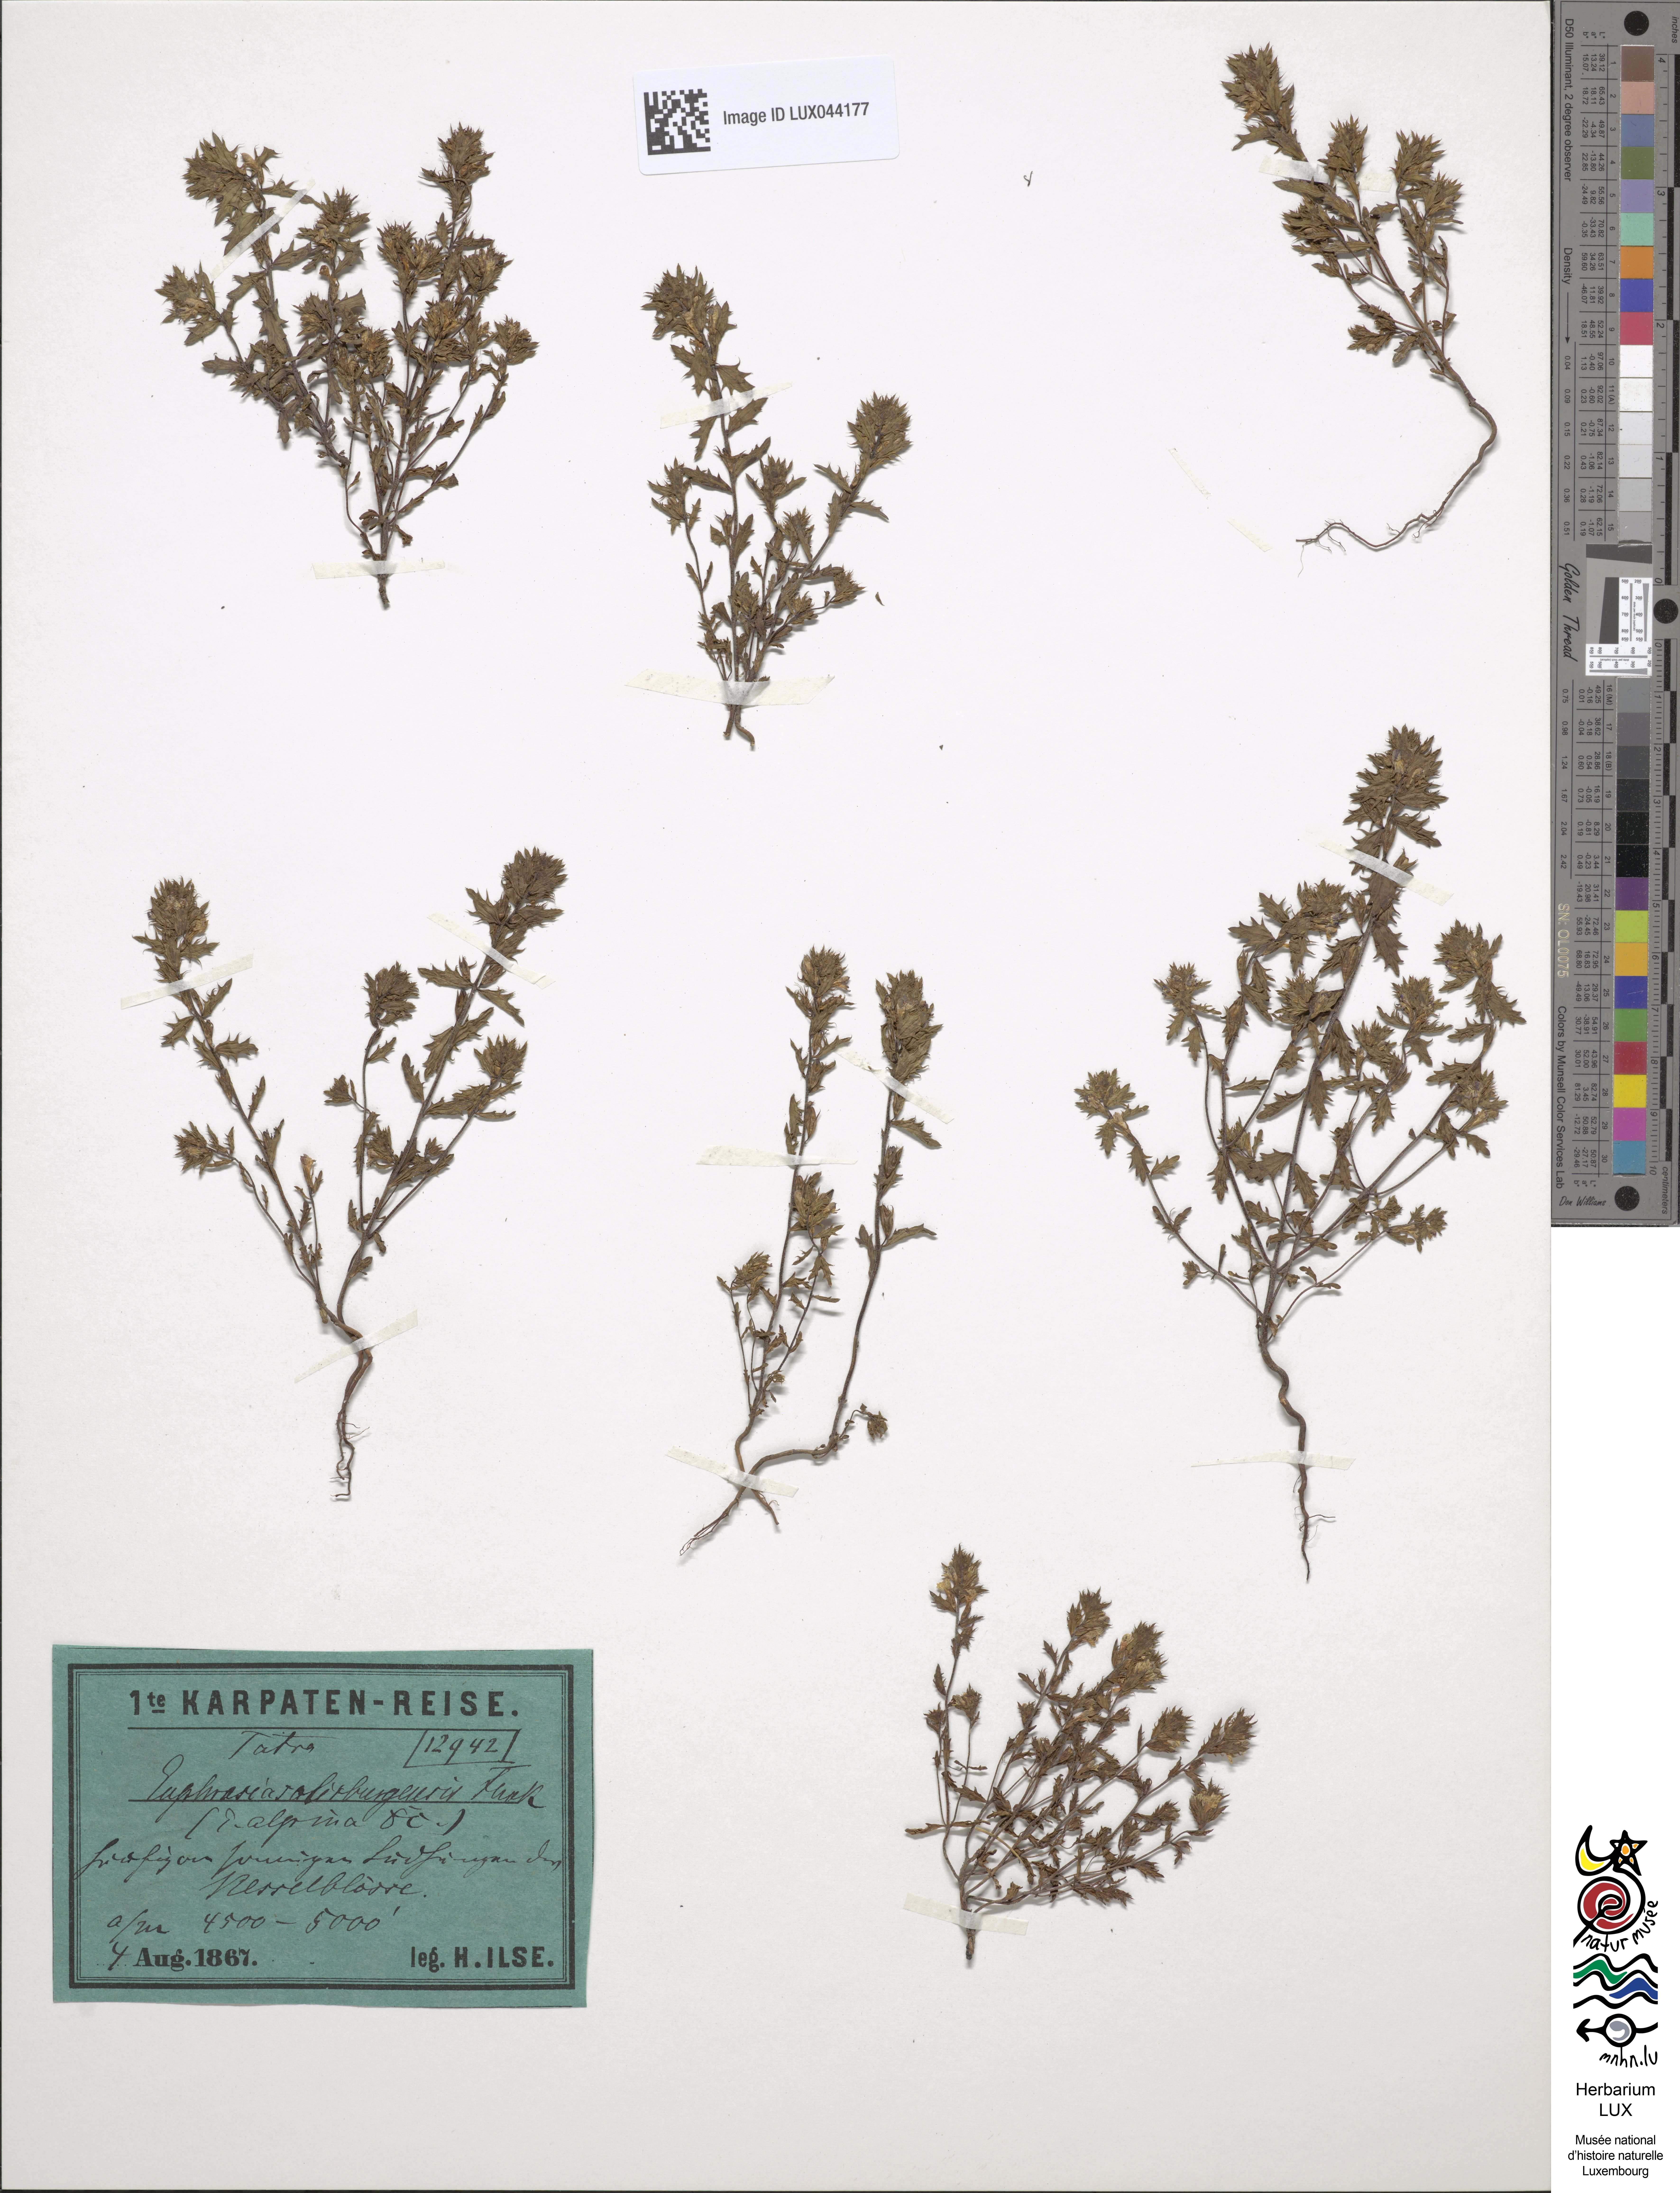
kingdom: Plantae
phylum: Tracheophyta
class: Magnoliopsida
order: Lamiales
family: Orobanchaceae
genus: Euphrasia
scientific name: Euphrasia salisburgensis
